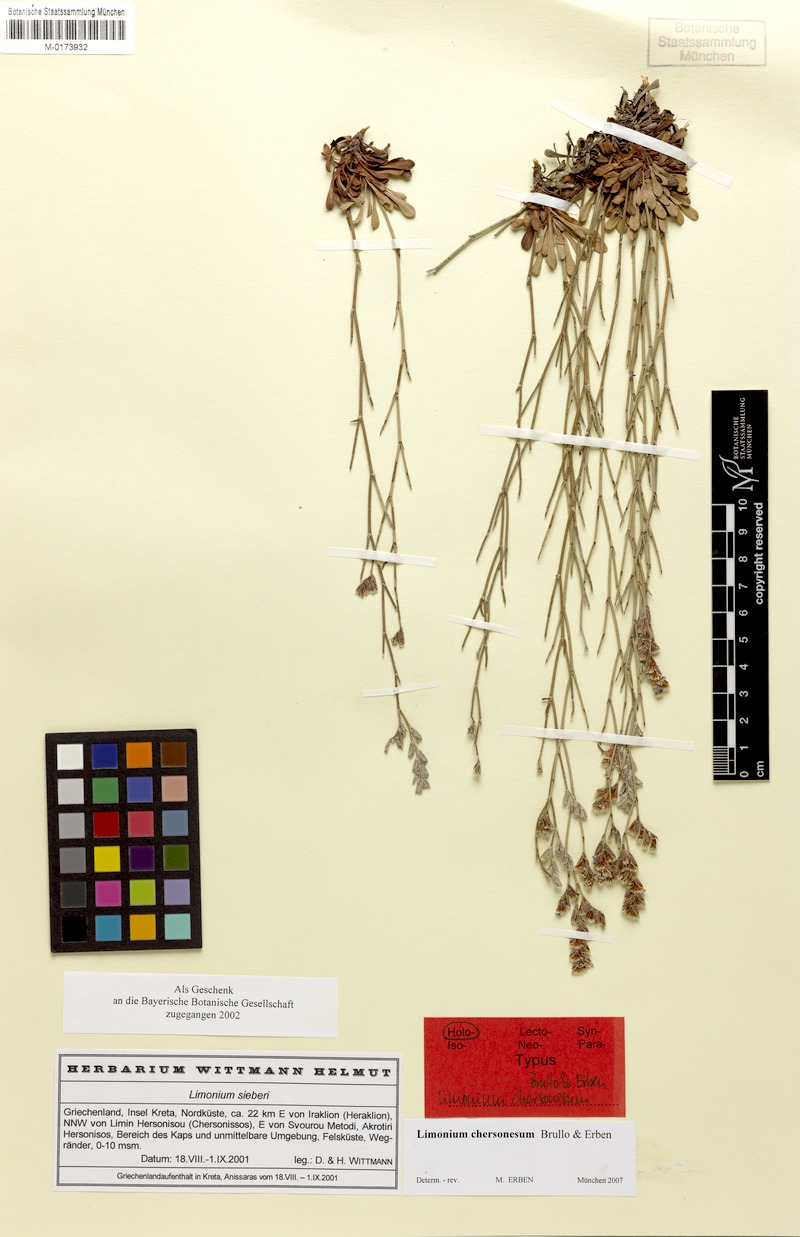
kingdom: Plantae
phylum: Tracheophyta
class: Magnoliopsida
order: Caryophyllales
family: Plumbaginaceae
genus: Limonium
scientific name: Limonium chersonesum
